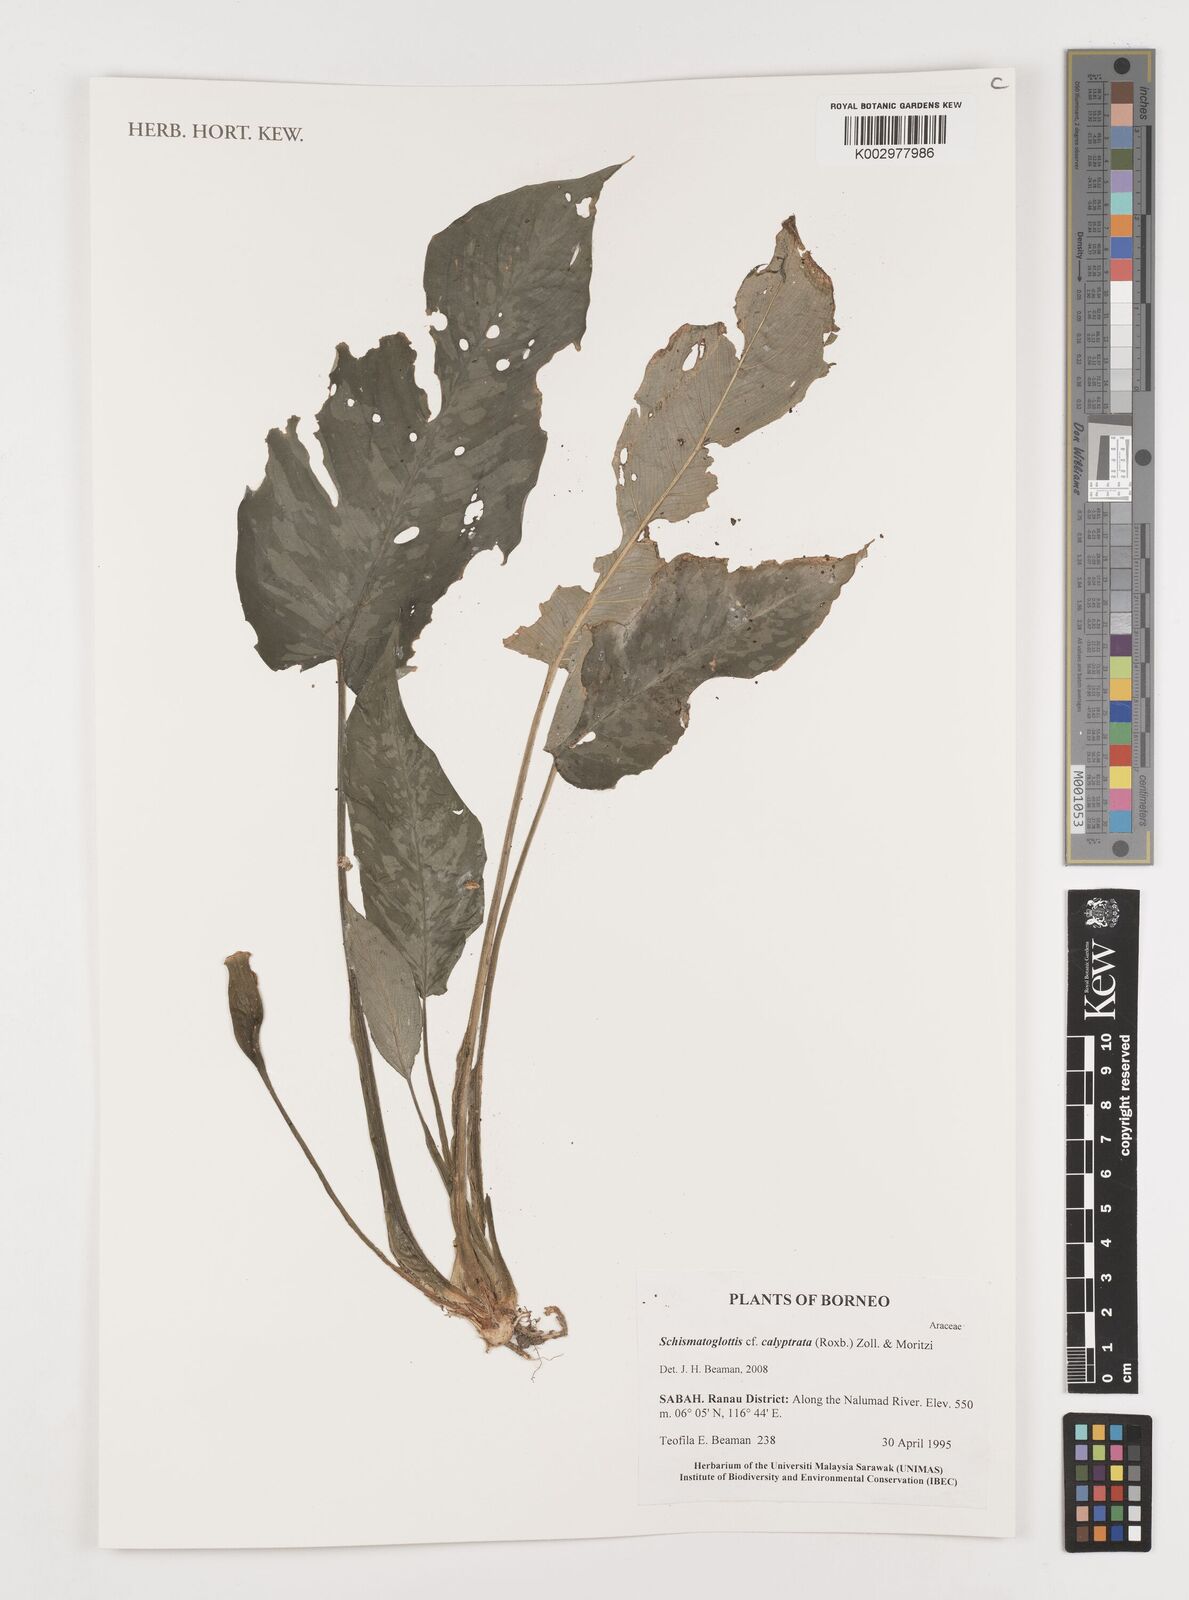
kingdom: Plantae
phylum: Tracheophyta
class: Liliopsida
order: Alismatales
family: Araceae
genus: Schismatoglottis
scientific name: Schismatoglottis calyptrata
